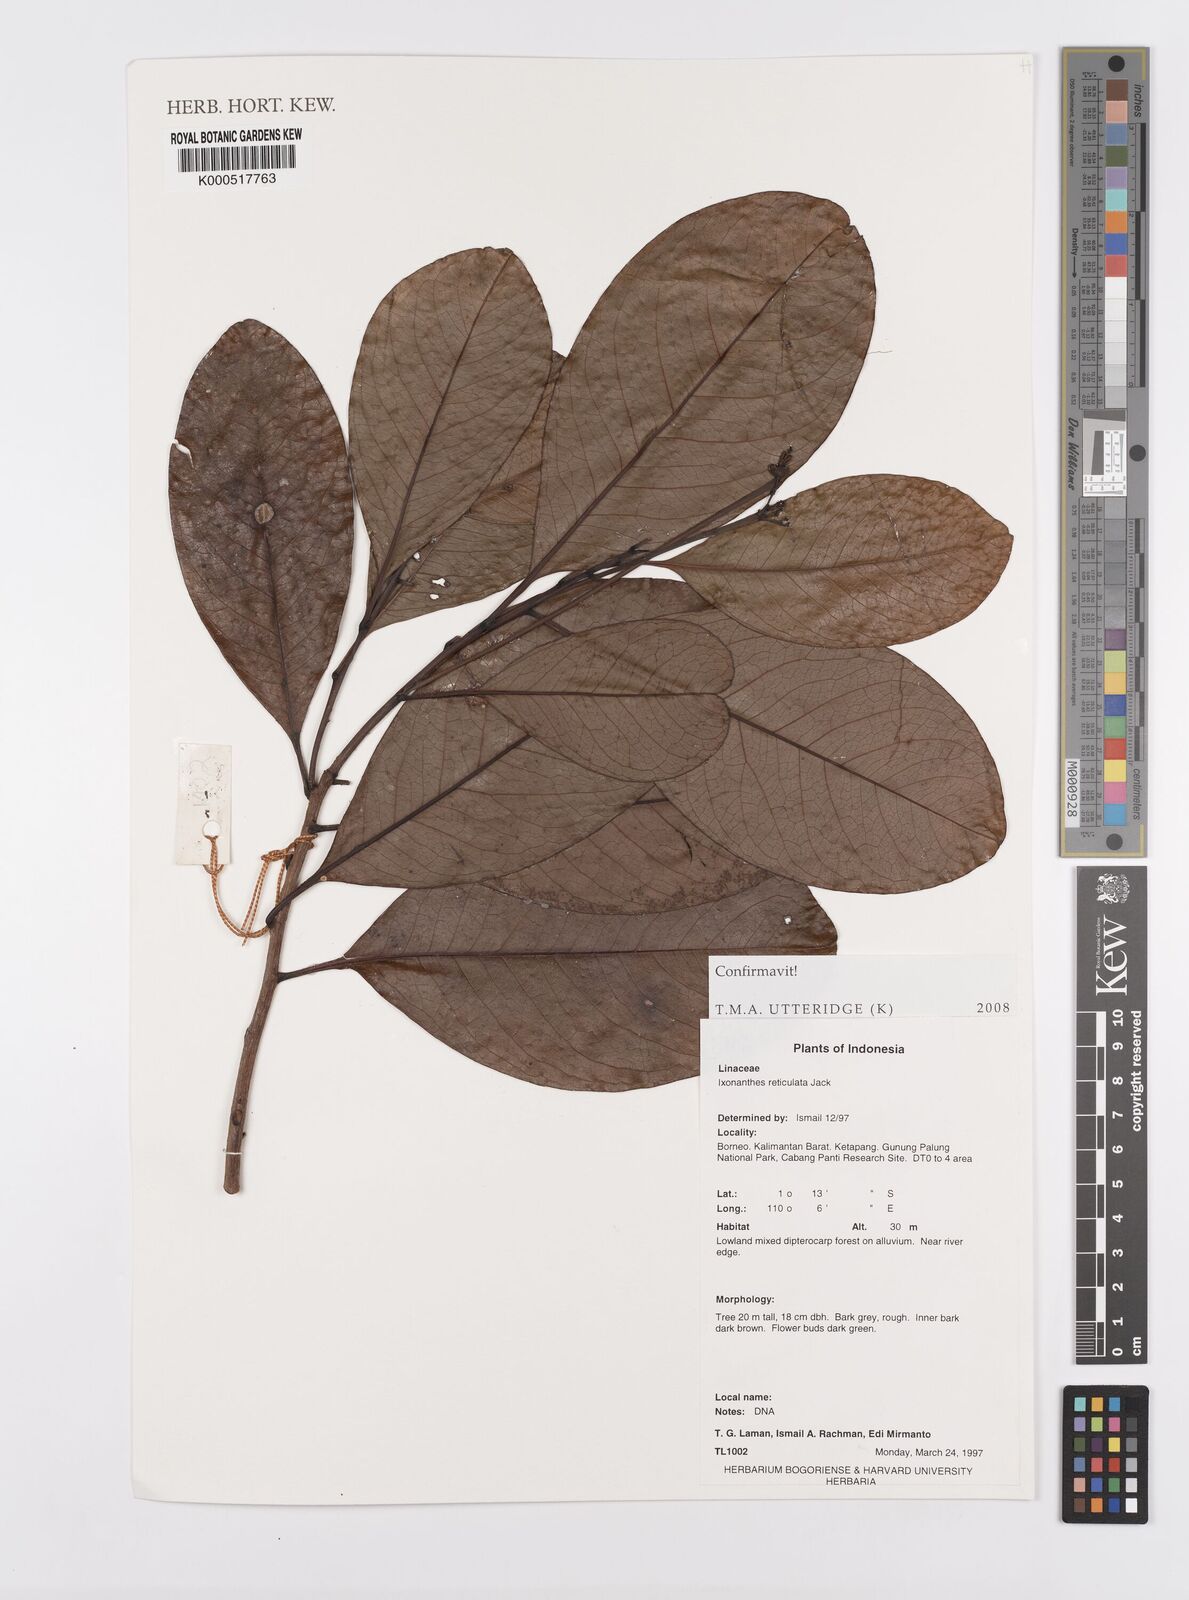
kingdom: Plantae
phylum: Tracheophyta
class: Magnoliopsida
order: Malpighiales
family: Ixonanthaceae
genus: Ixonanthes
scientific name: Ixonanthes reticulata
